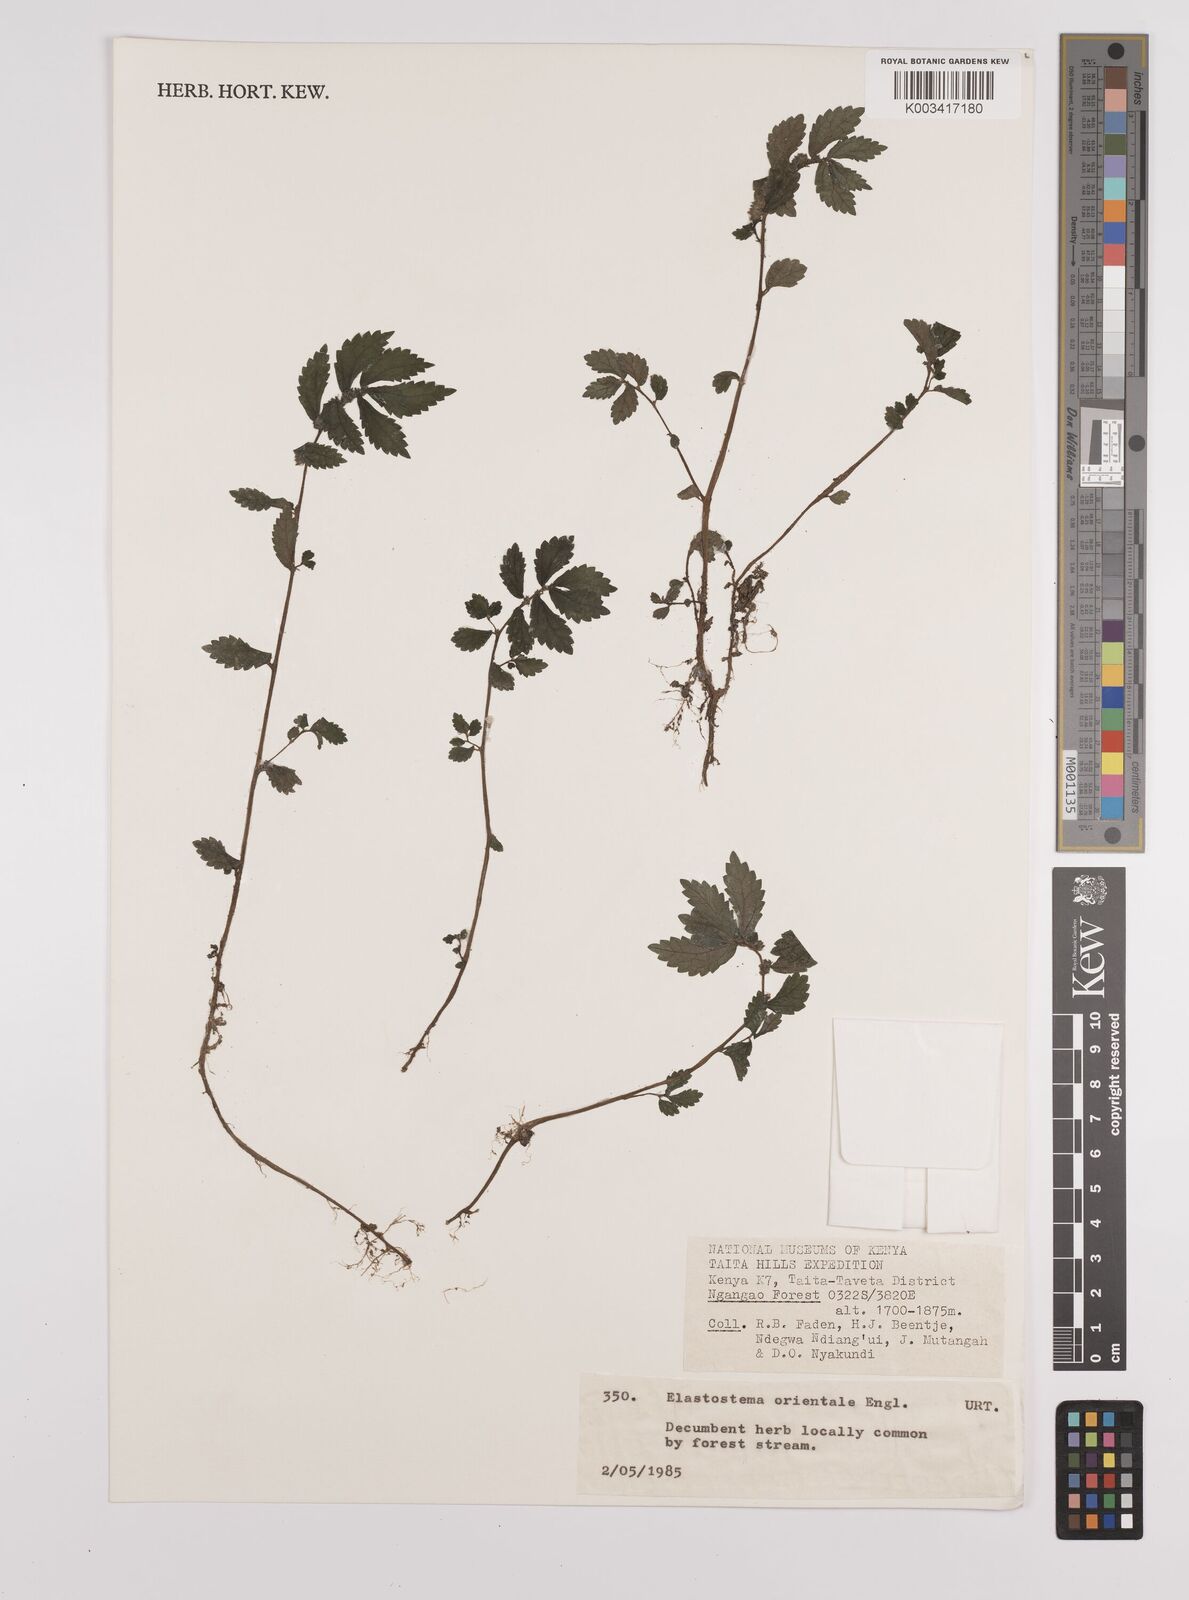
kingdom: Plantae
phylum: Tracheophyta
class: Magnoliopsida
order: Rosales
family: Urticaceae
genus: Elatostema
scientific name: Elatostema monticola
